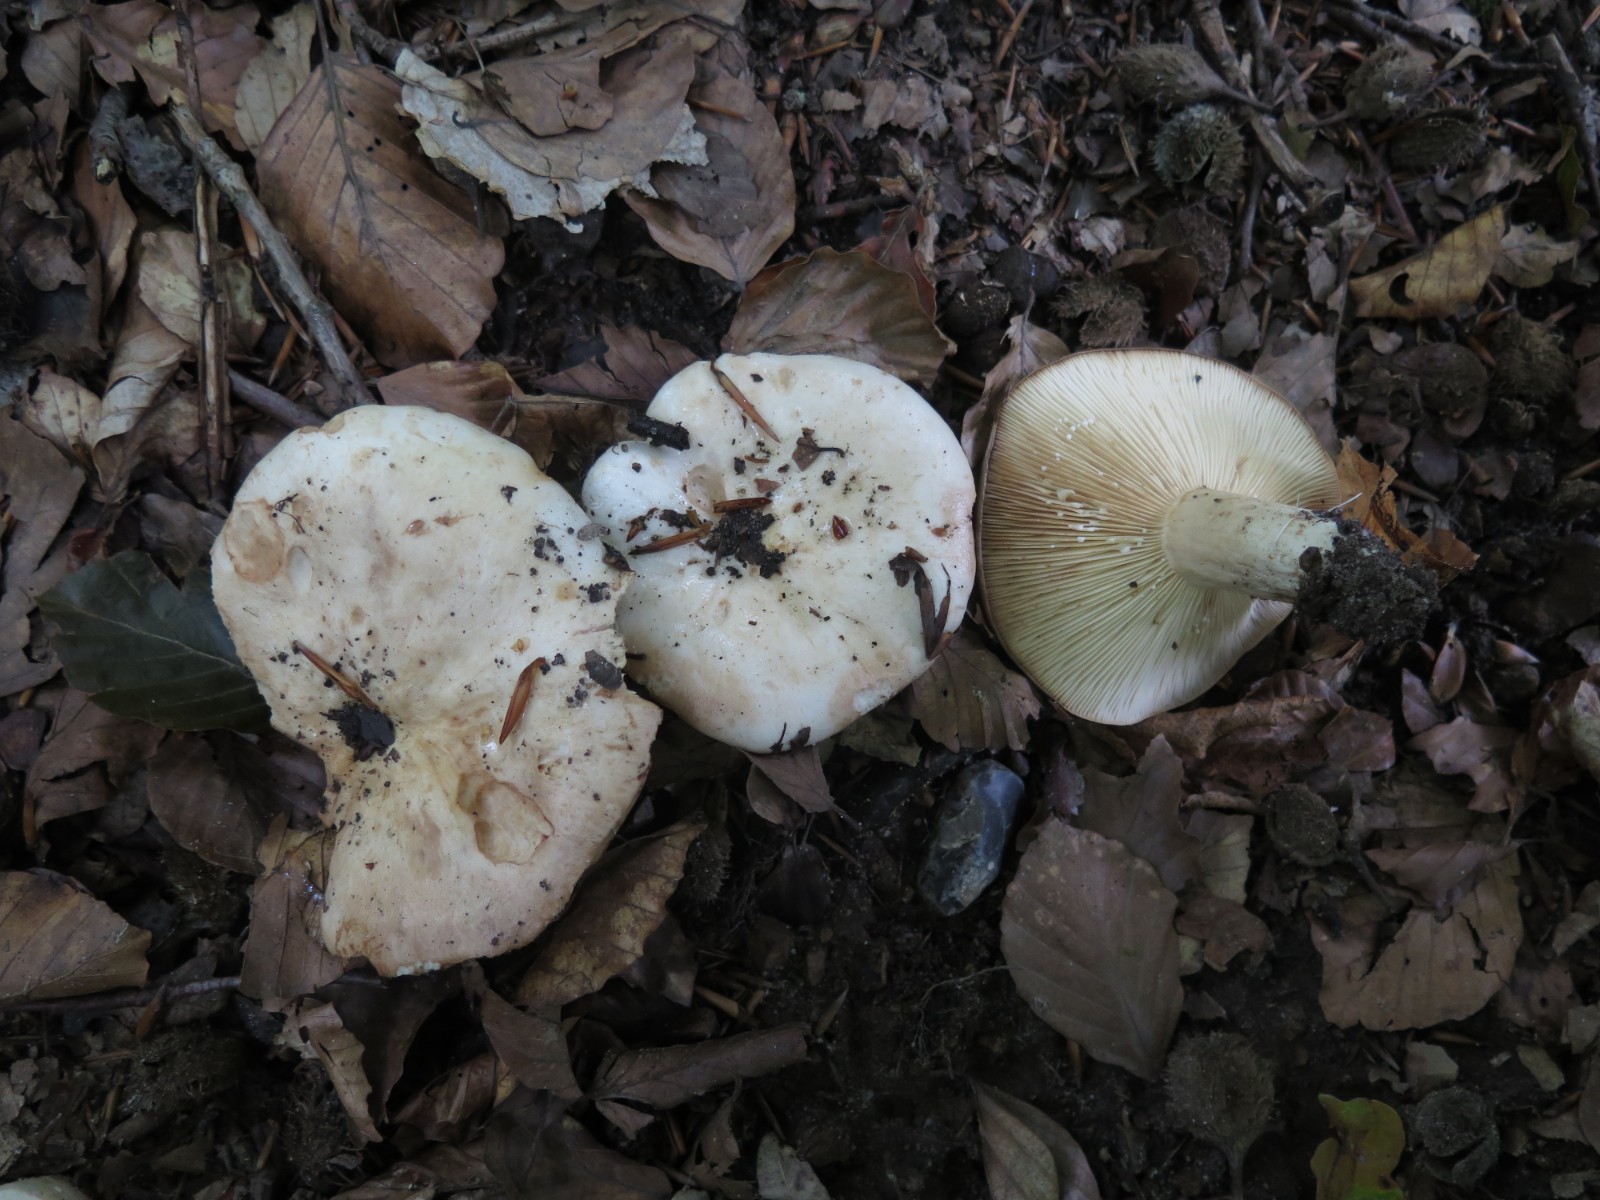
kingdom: Fungi
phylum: Basidiomycota
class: Agaricomycetes
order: Russulales
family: Russulaceae
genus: Lactarius
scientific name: Lactarius pallidus
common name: bleg mælkehat
